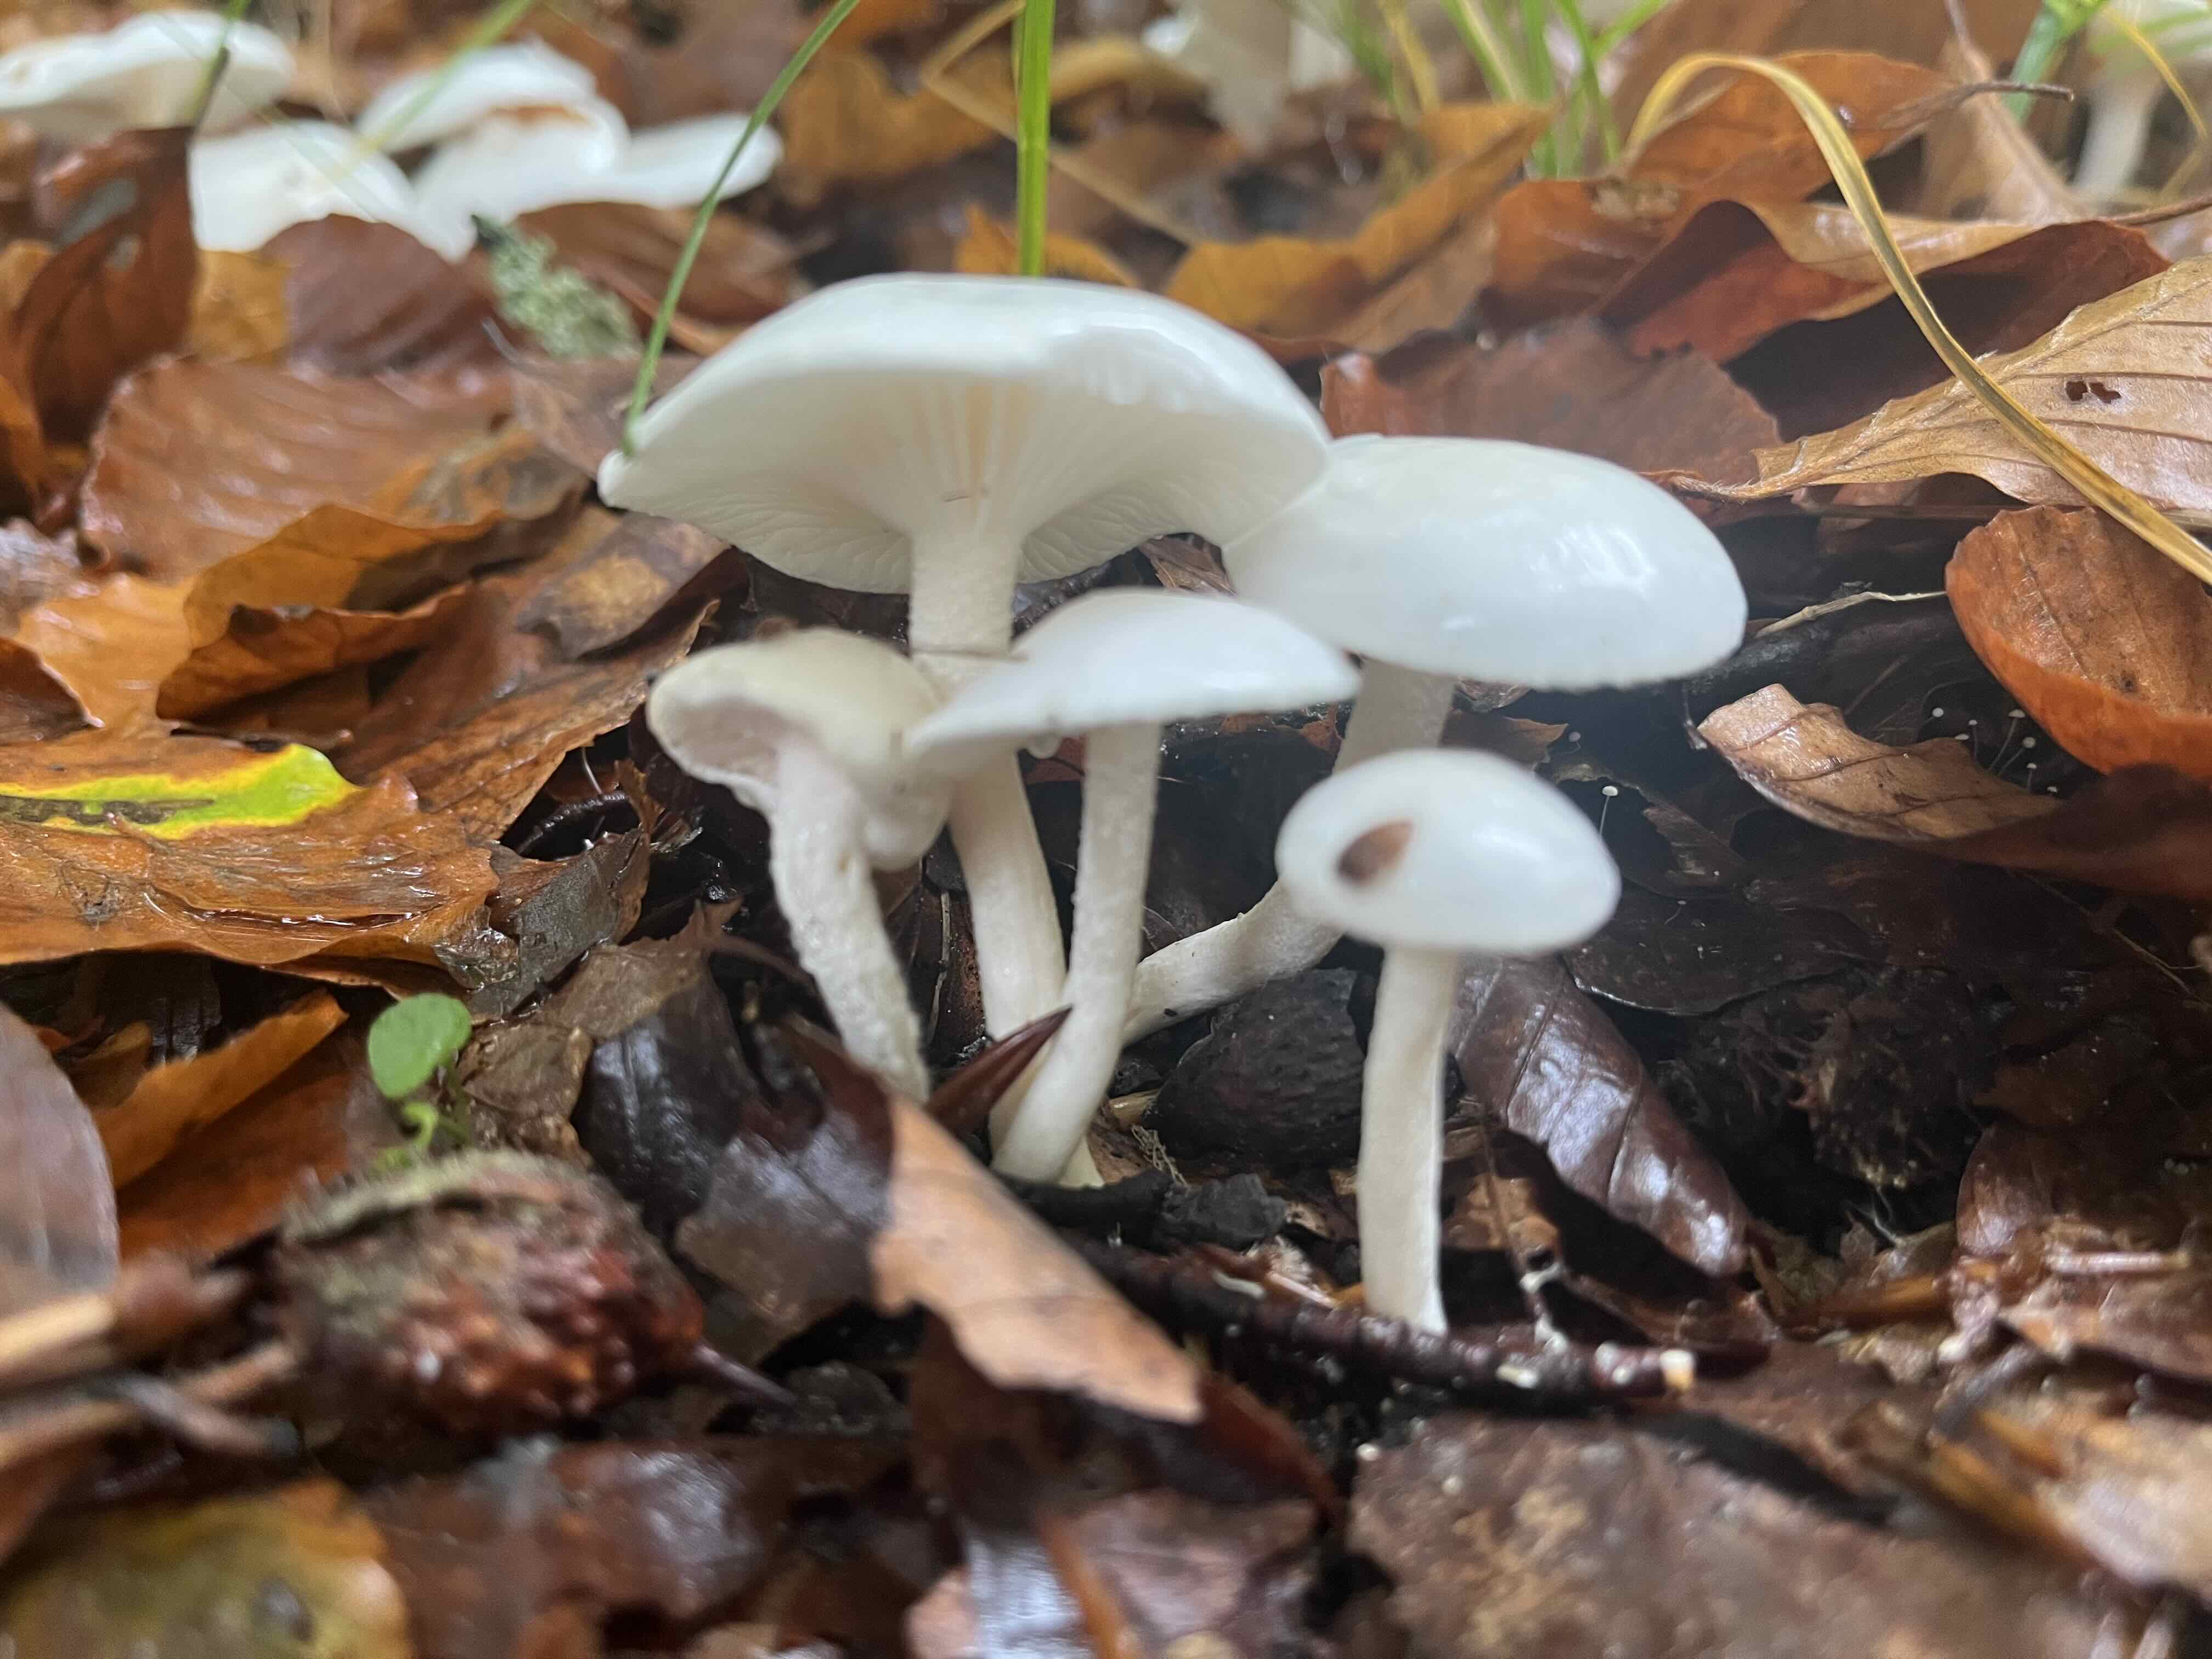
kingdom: Fungi
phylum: Basidiomycota
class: Agaricomycetes
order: Agaricales
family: Hygrophoraceae
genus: Hygrophorus
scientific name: Hygrophorus eburneus
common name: elfenbens-sneglehat
